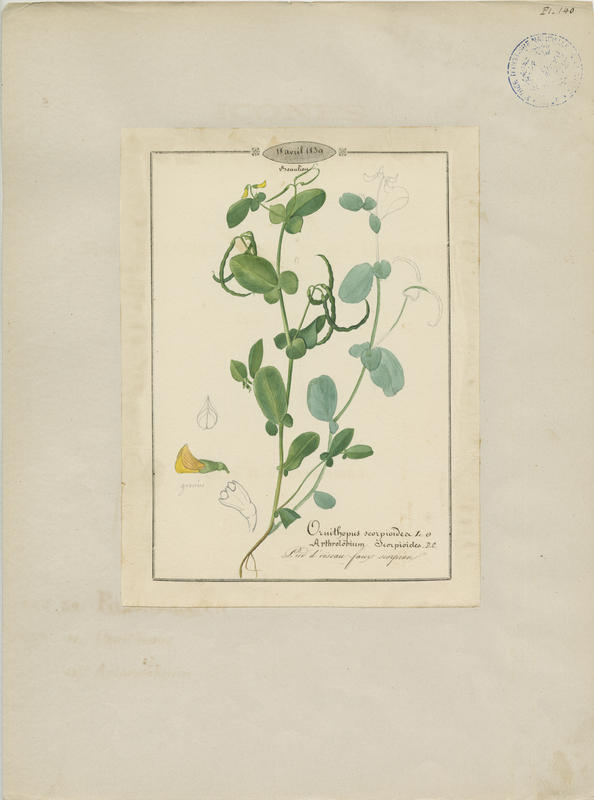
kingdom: Plantae
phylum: Tracheophyta
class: Magnoliopsida
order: Fabales
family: Fabaceae
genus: Coronilla
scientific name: Coronilla scorpioides
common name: Annual scorpion-vetch
